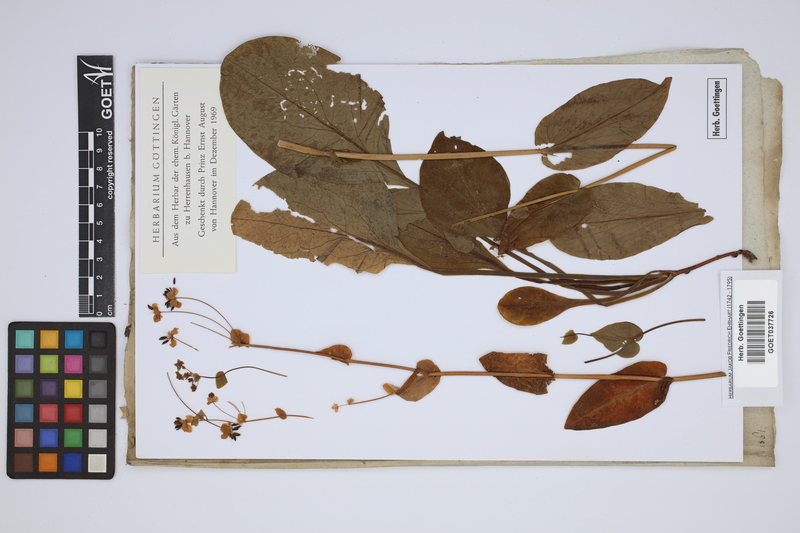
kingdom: Plantae
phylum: Tracheophyta
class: Magnoliopsida
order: Apiales
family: Apiaceae
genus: Bupleurum
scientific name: Bupleurum longifolium
